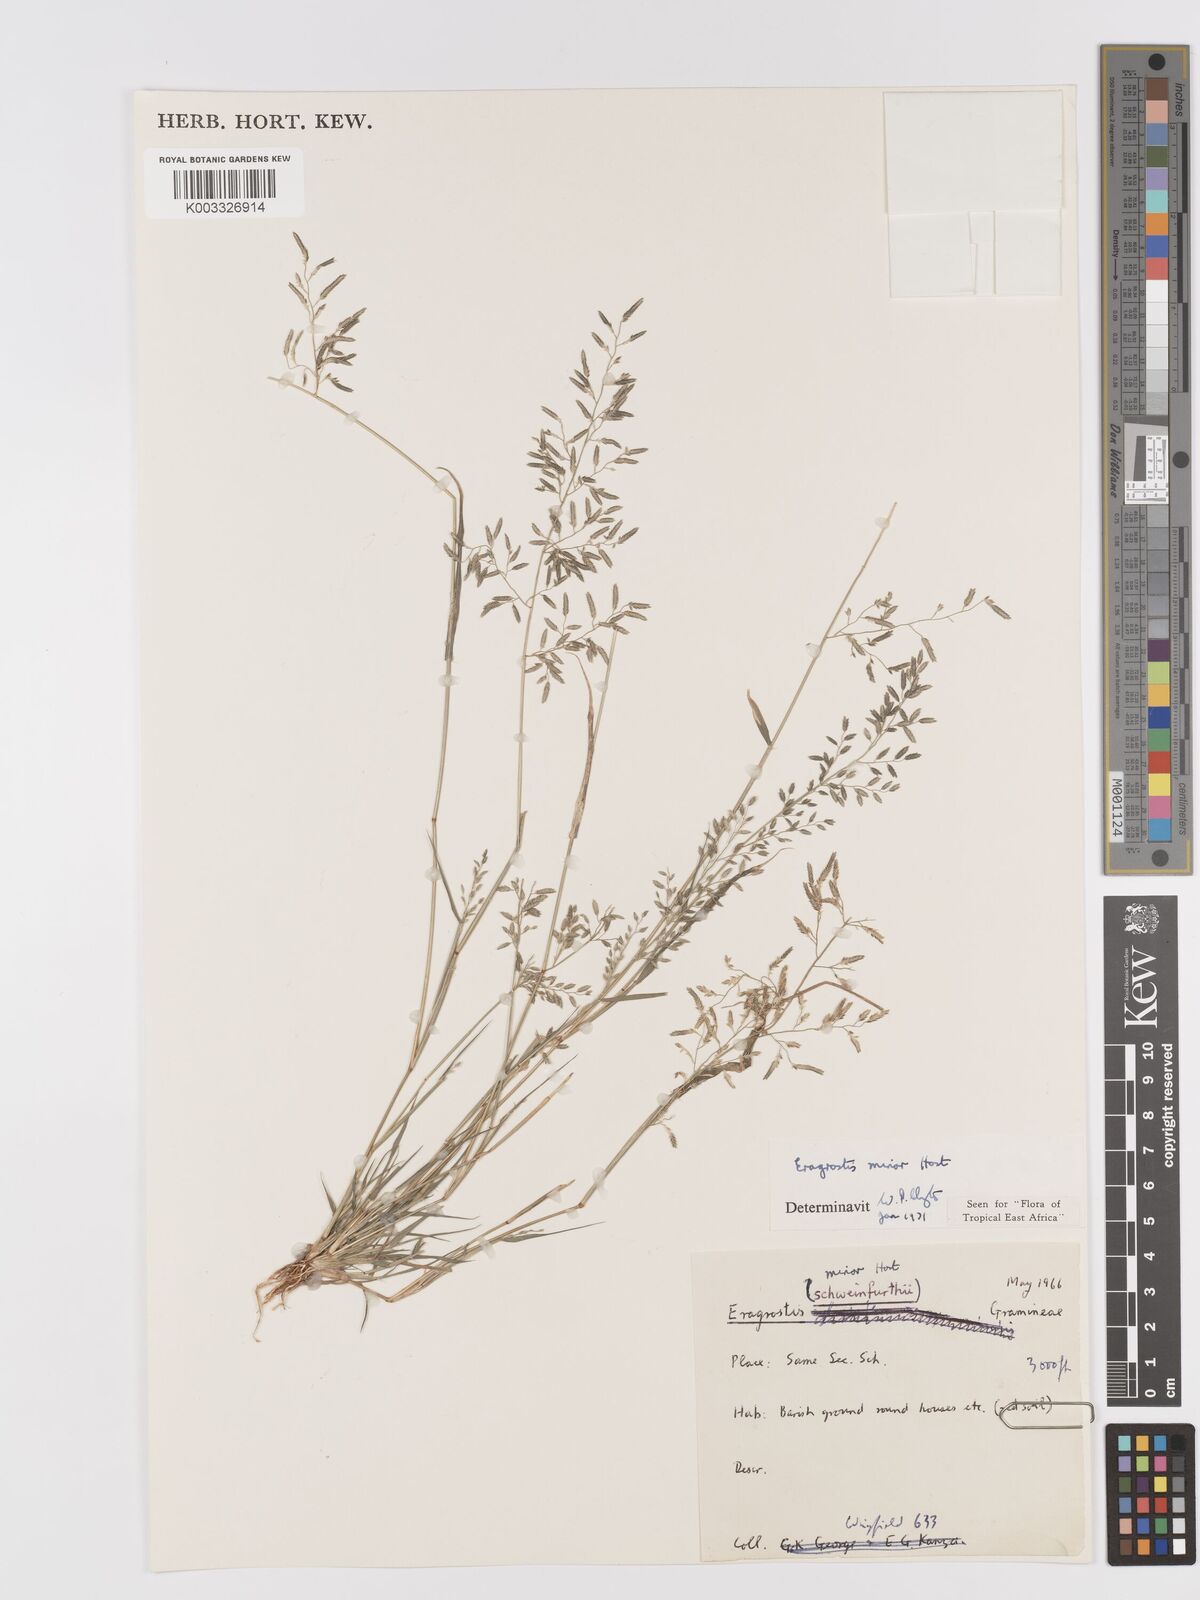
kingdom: Plantae
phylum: Tracheophyta
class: Liliopsida
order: Poales
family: Poaceae
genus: Eragrostis
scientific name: Eragrostis minor
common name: Small love-grass
